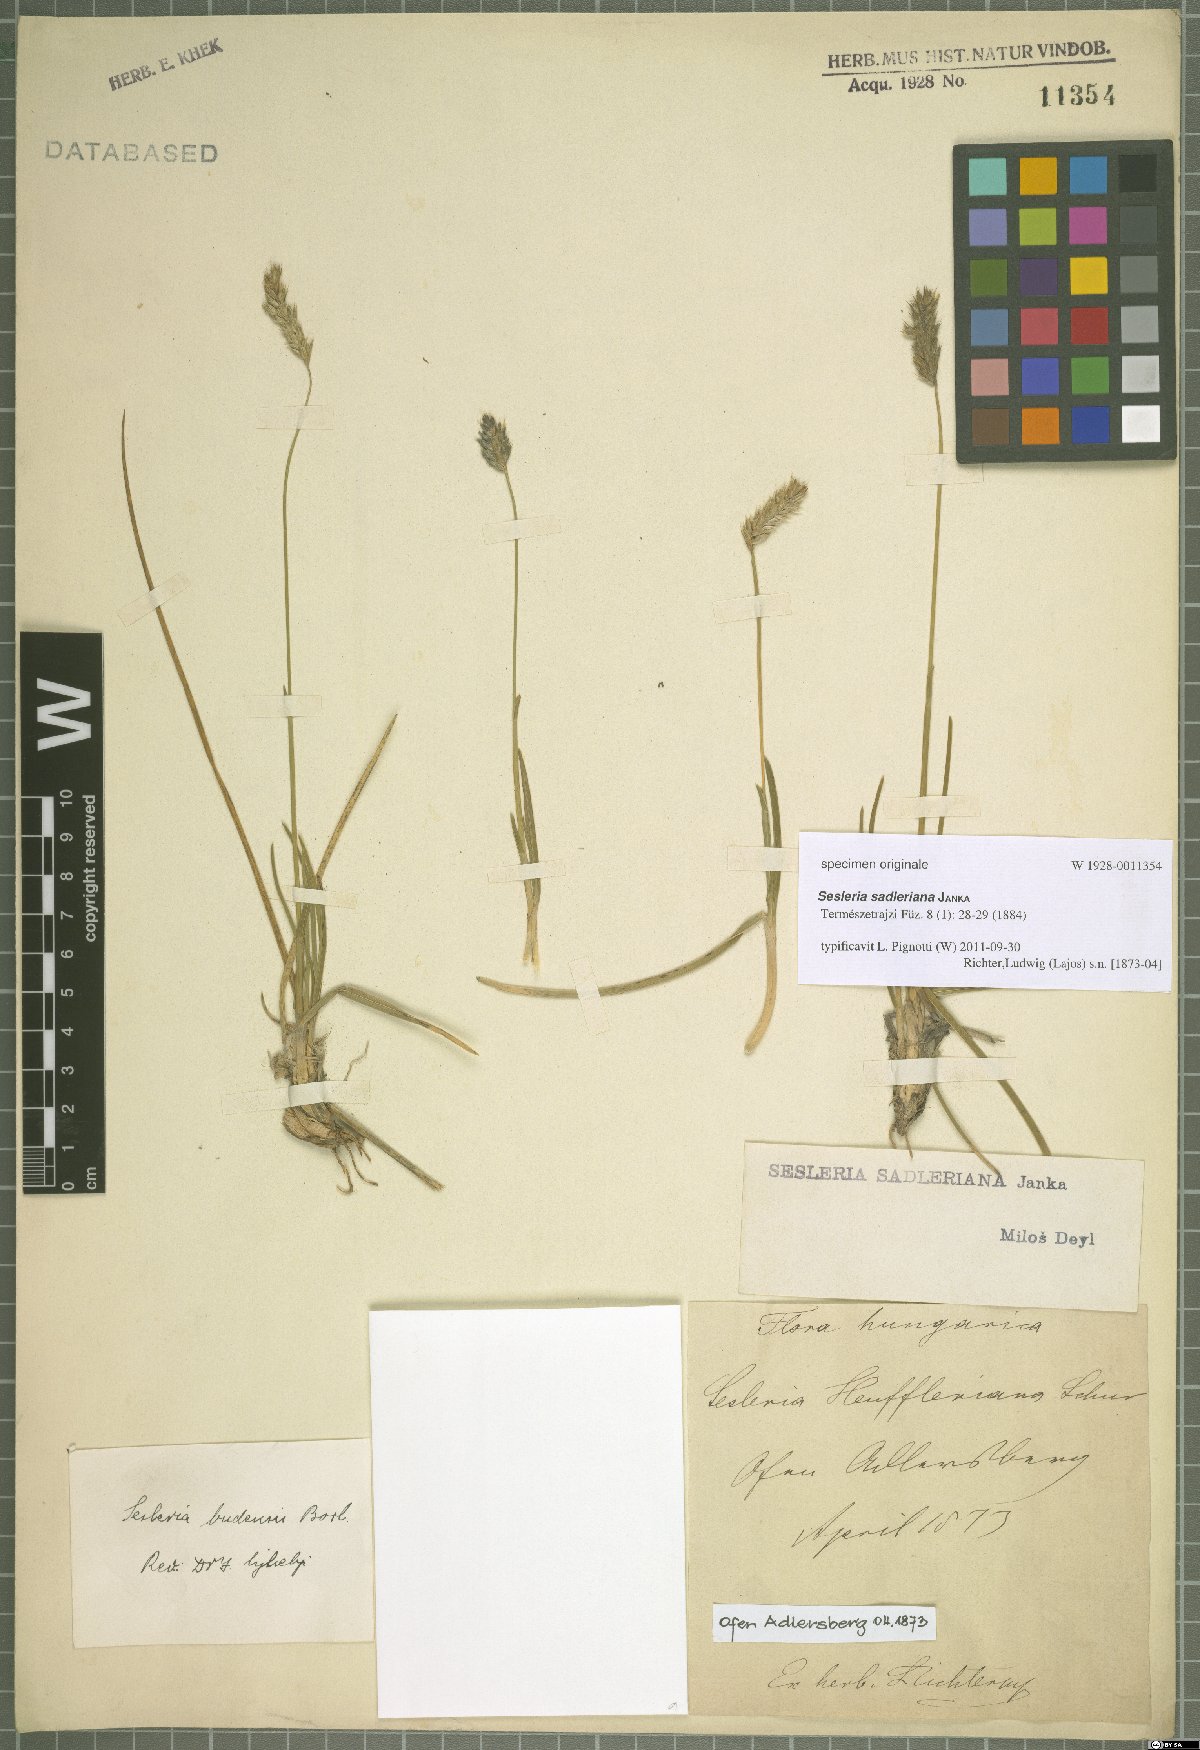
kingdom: Plantae
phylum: Tracheophyta
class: Liliopsida
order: Poales
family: Poaceae
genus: Sesleria
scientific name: Sesleria sadleriana
